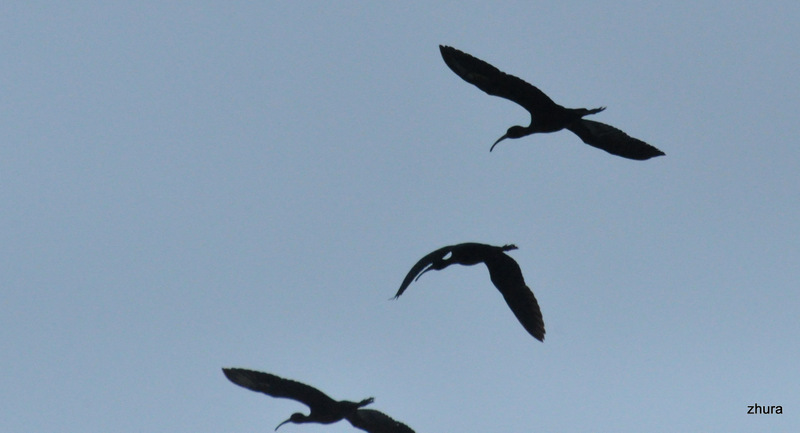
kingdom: Animalia
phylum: Chordata
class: Aves
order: Pelecaniformes
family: Threskiornithidae
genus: Plegadis
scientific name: Plegadis falcinellus
